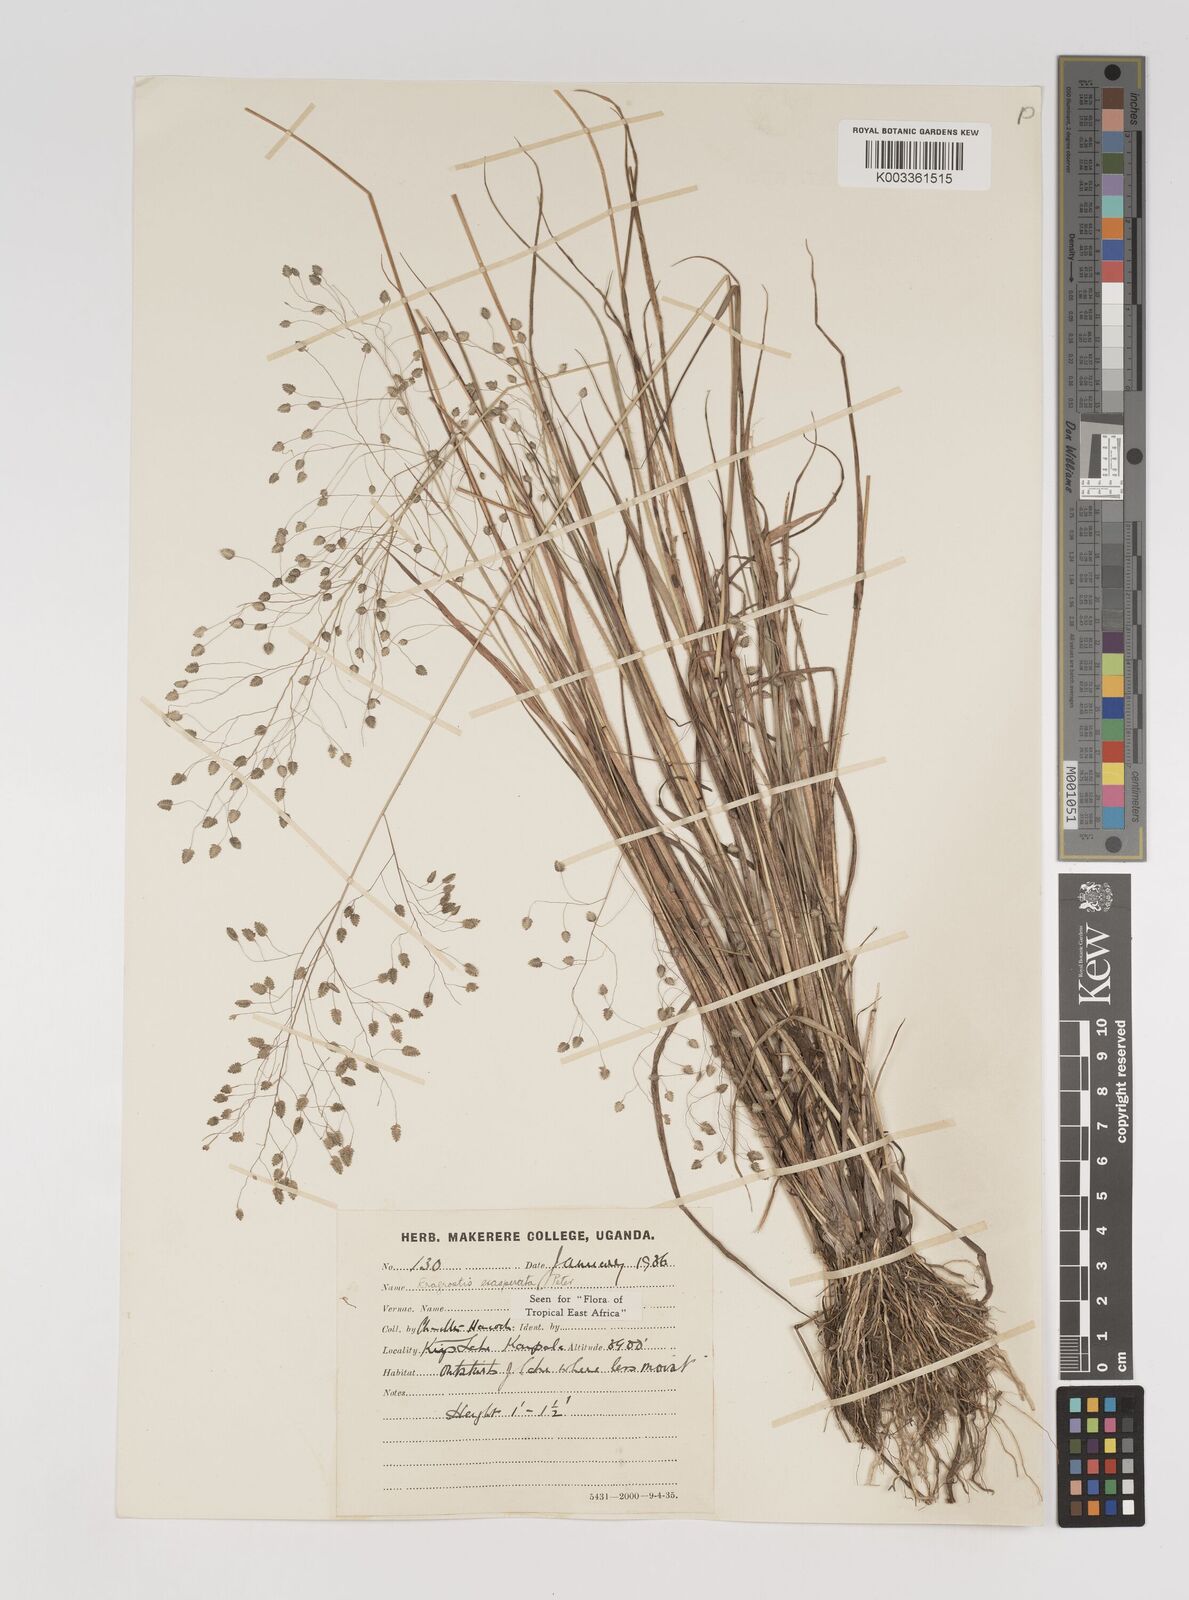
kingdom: Plantae
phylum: Tracheophyta
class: Liliopsida
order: Poales
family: Poaceae
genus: Eragrostis
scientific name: Eragrostis exasperata
